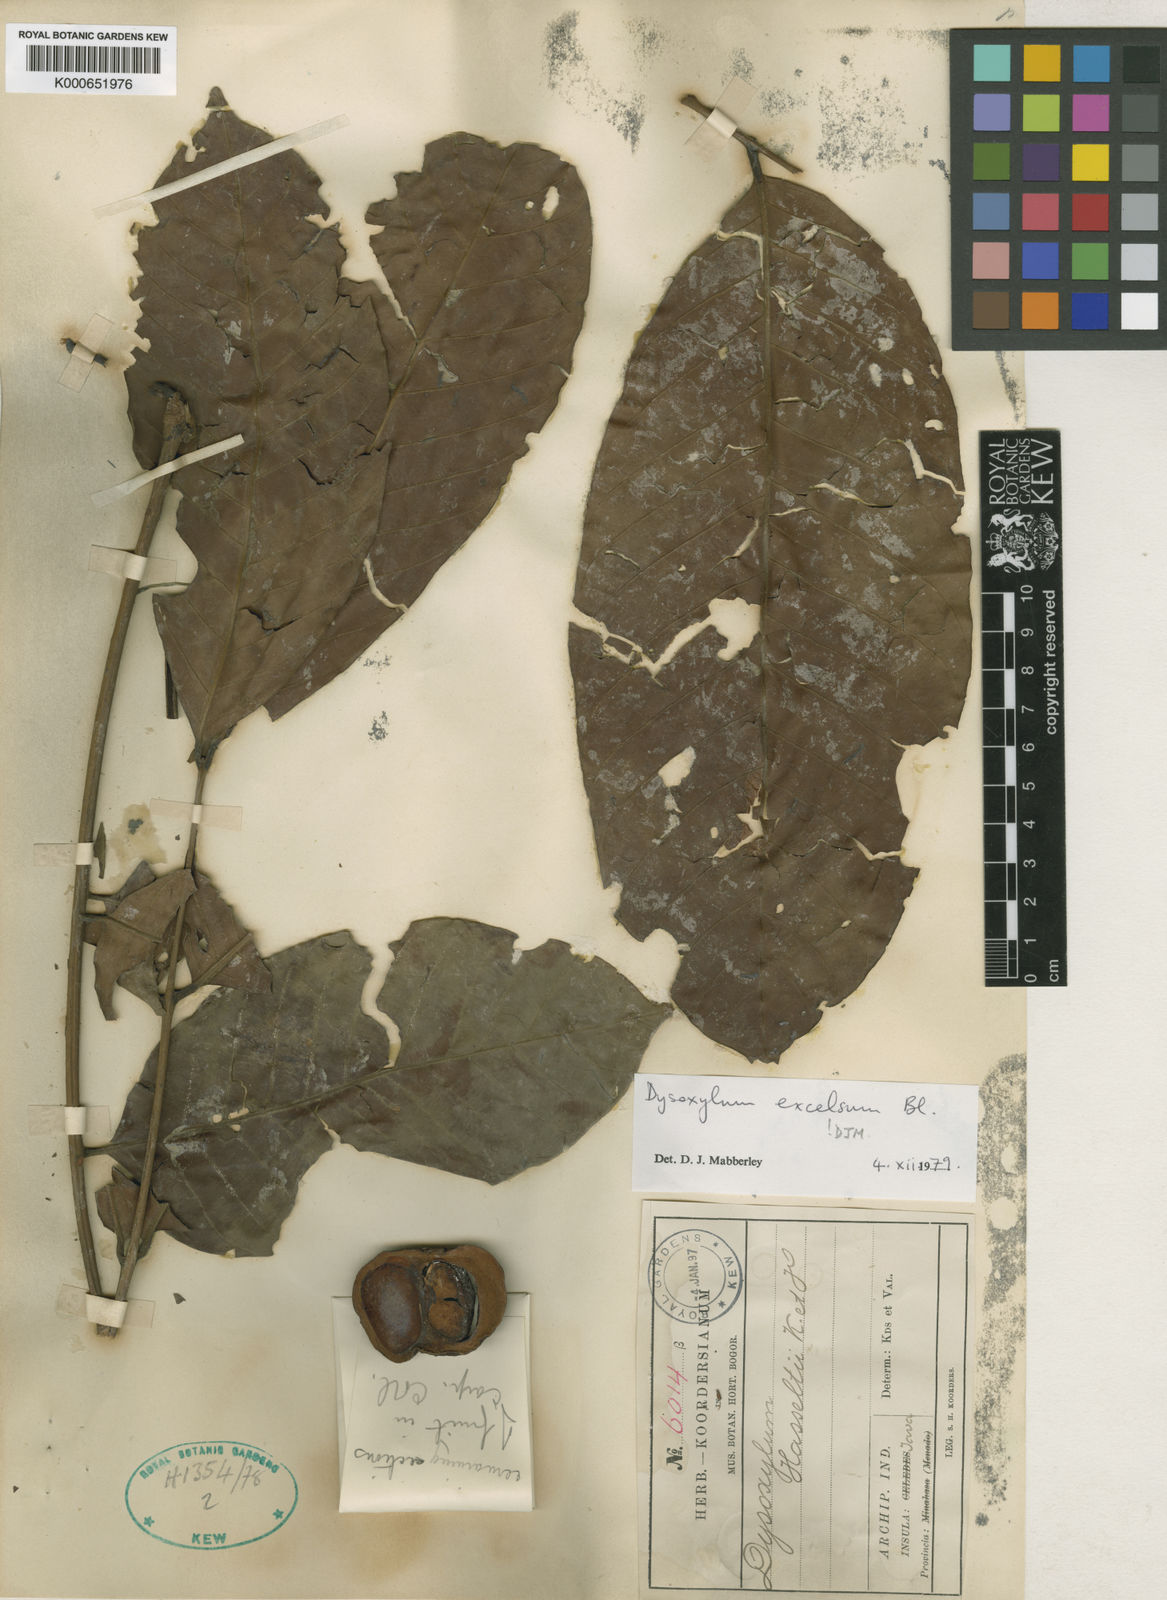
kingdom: Plantae
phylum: Tracheophyta
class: Magnoliopsida
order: Sapindales
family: Meliaceae
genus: Dysoxylum
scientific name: Dysoxylum excelsum
